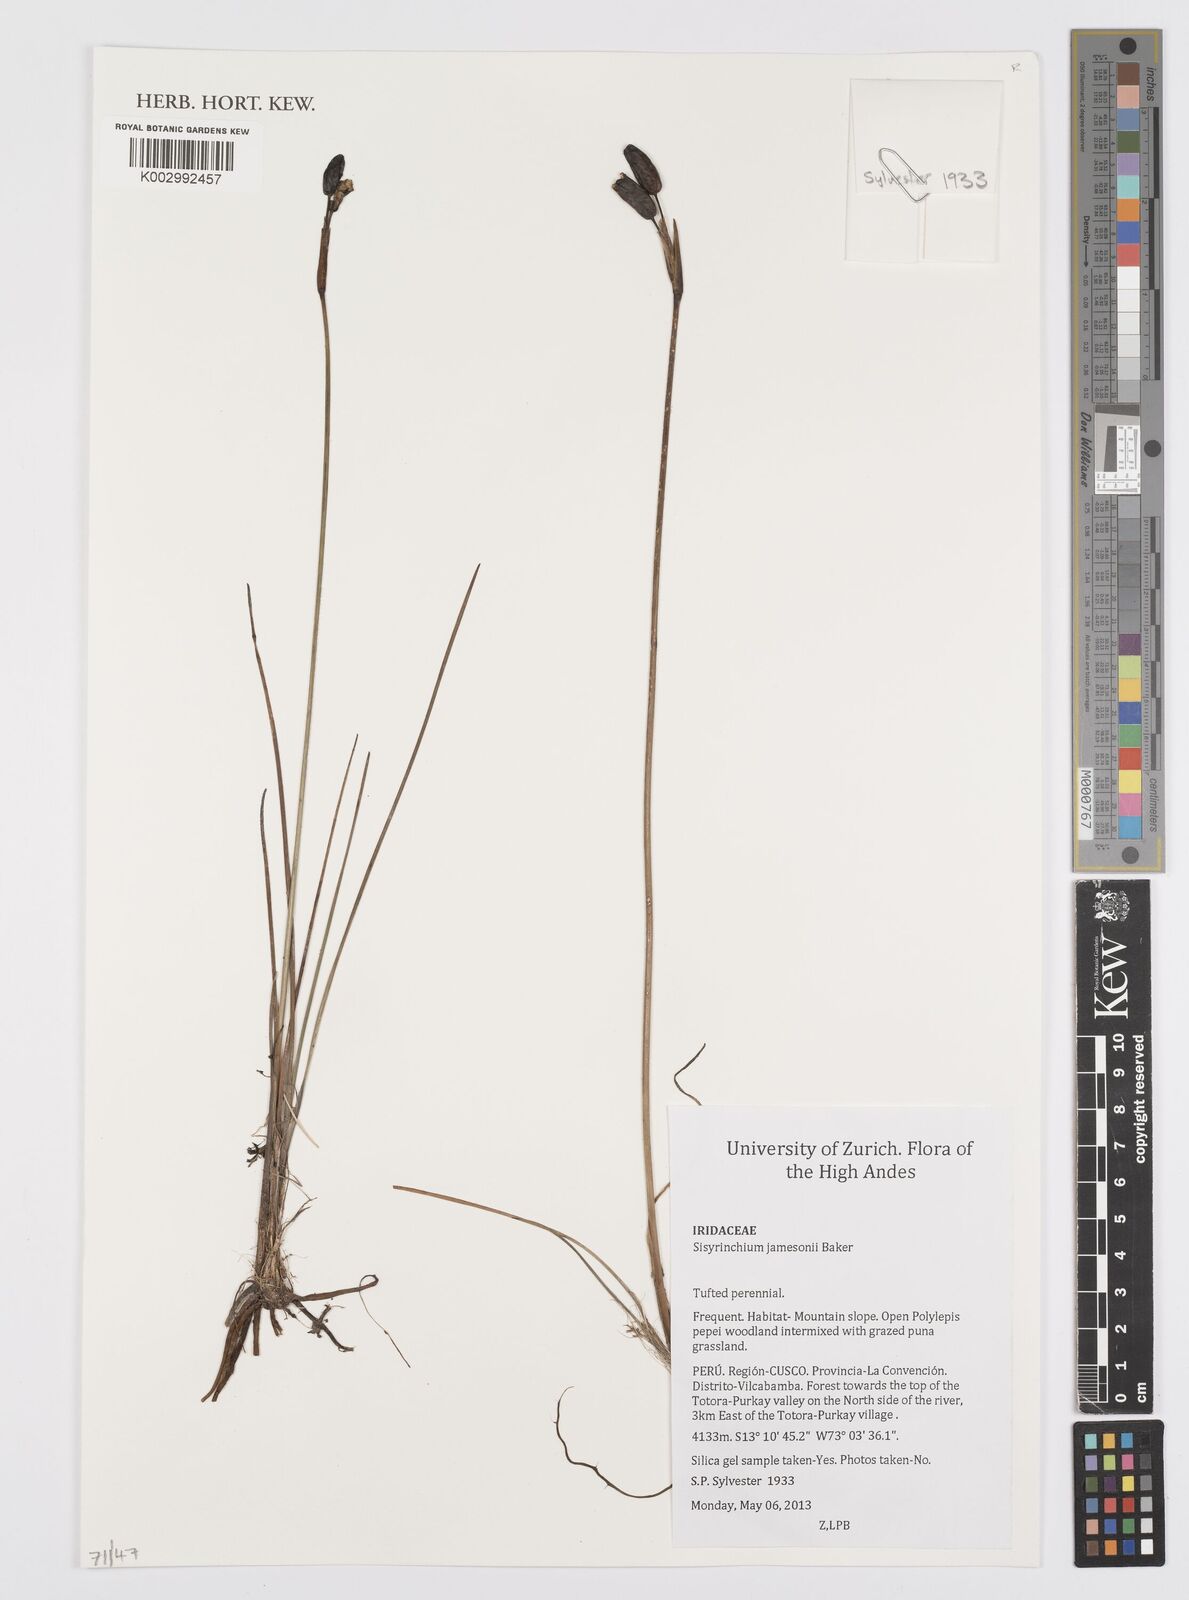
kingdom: Plantae
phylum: Tracheophyta
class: Liliopsida
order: Asparagales
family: Iridaceae
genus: Sisyrinchium
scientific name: Sisyrinchium jamesonii
